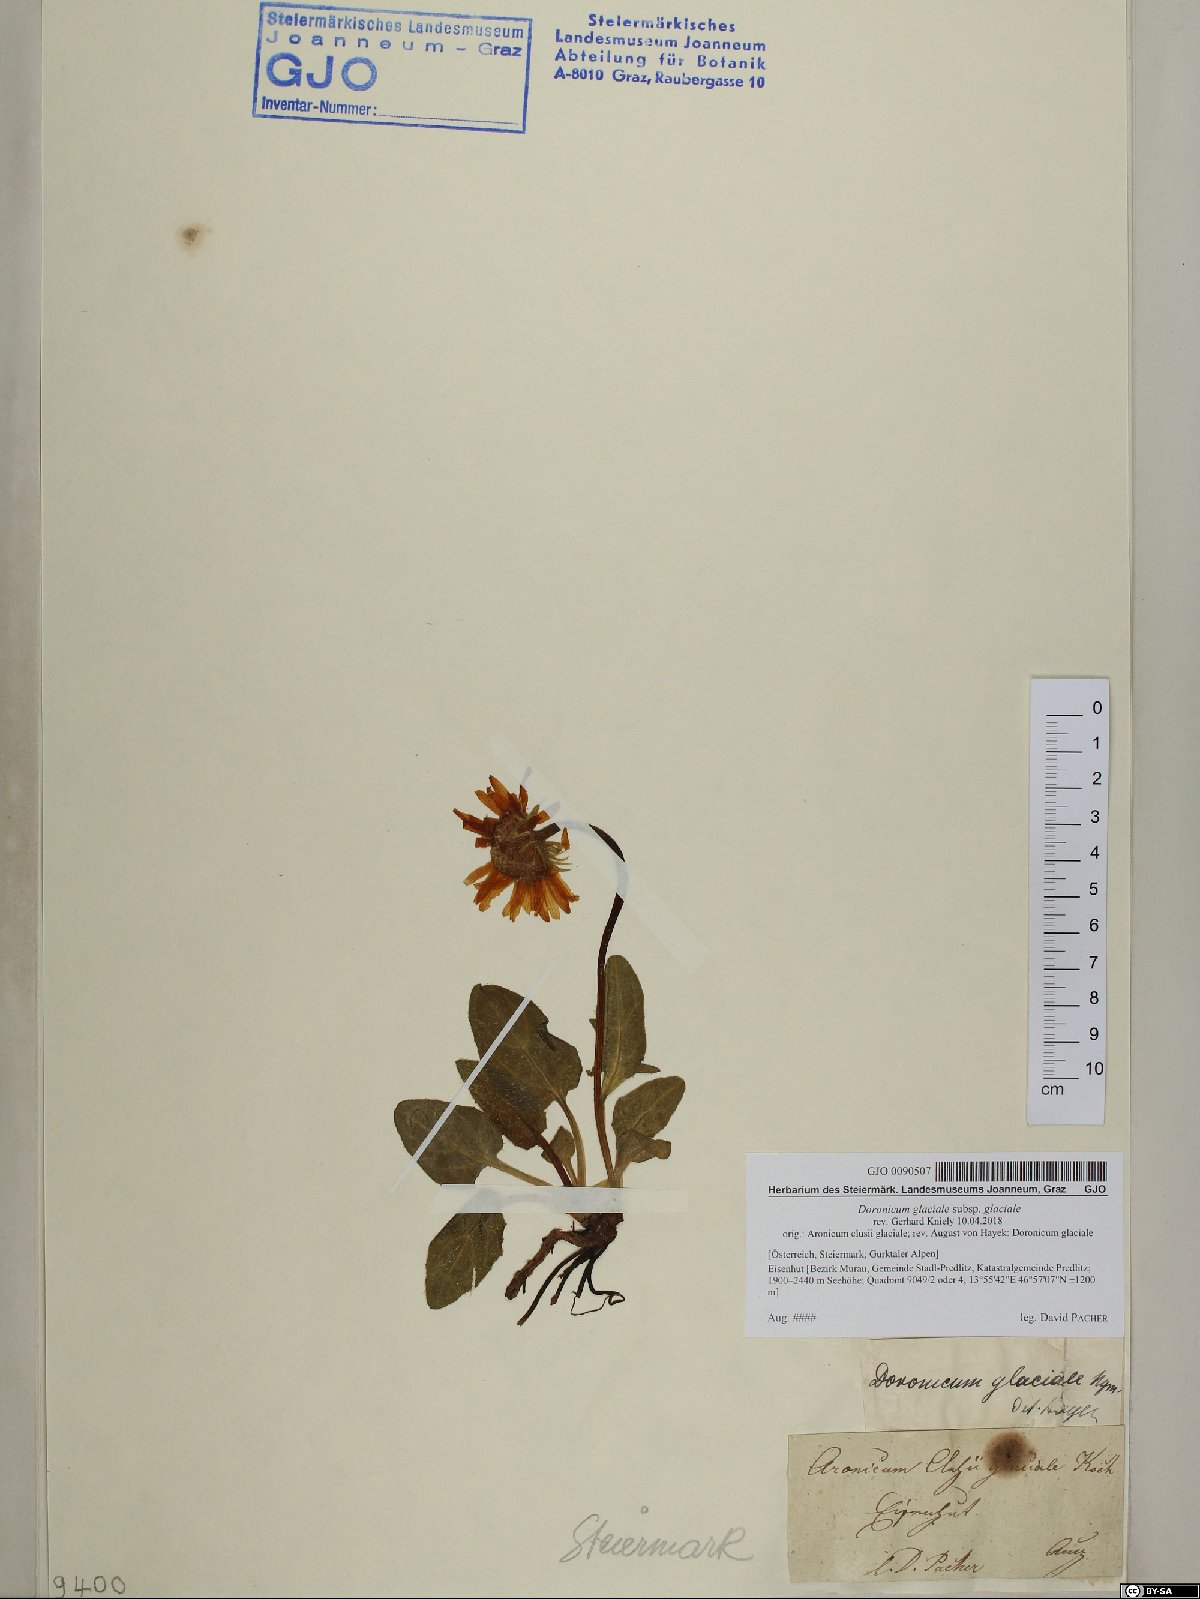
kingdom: Plantae
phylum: Tracheophyta
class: Magnoliopsida
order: Asterales
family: Asteraceae
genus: Doronicum
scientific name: Doronicum glaciale
